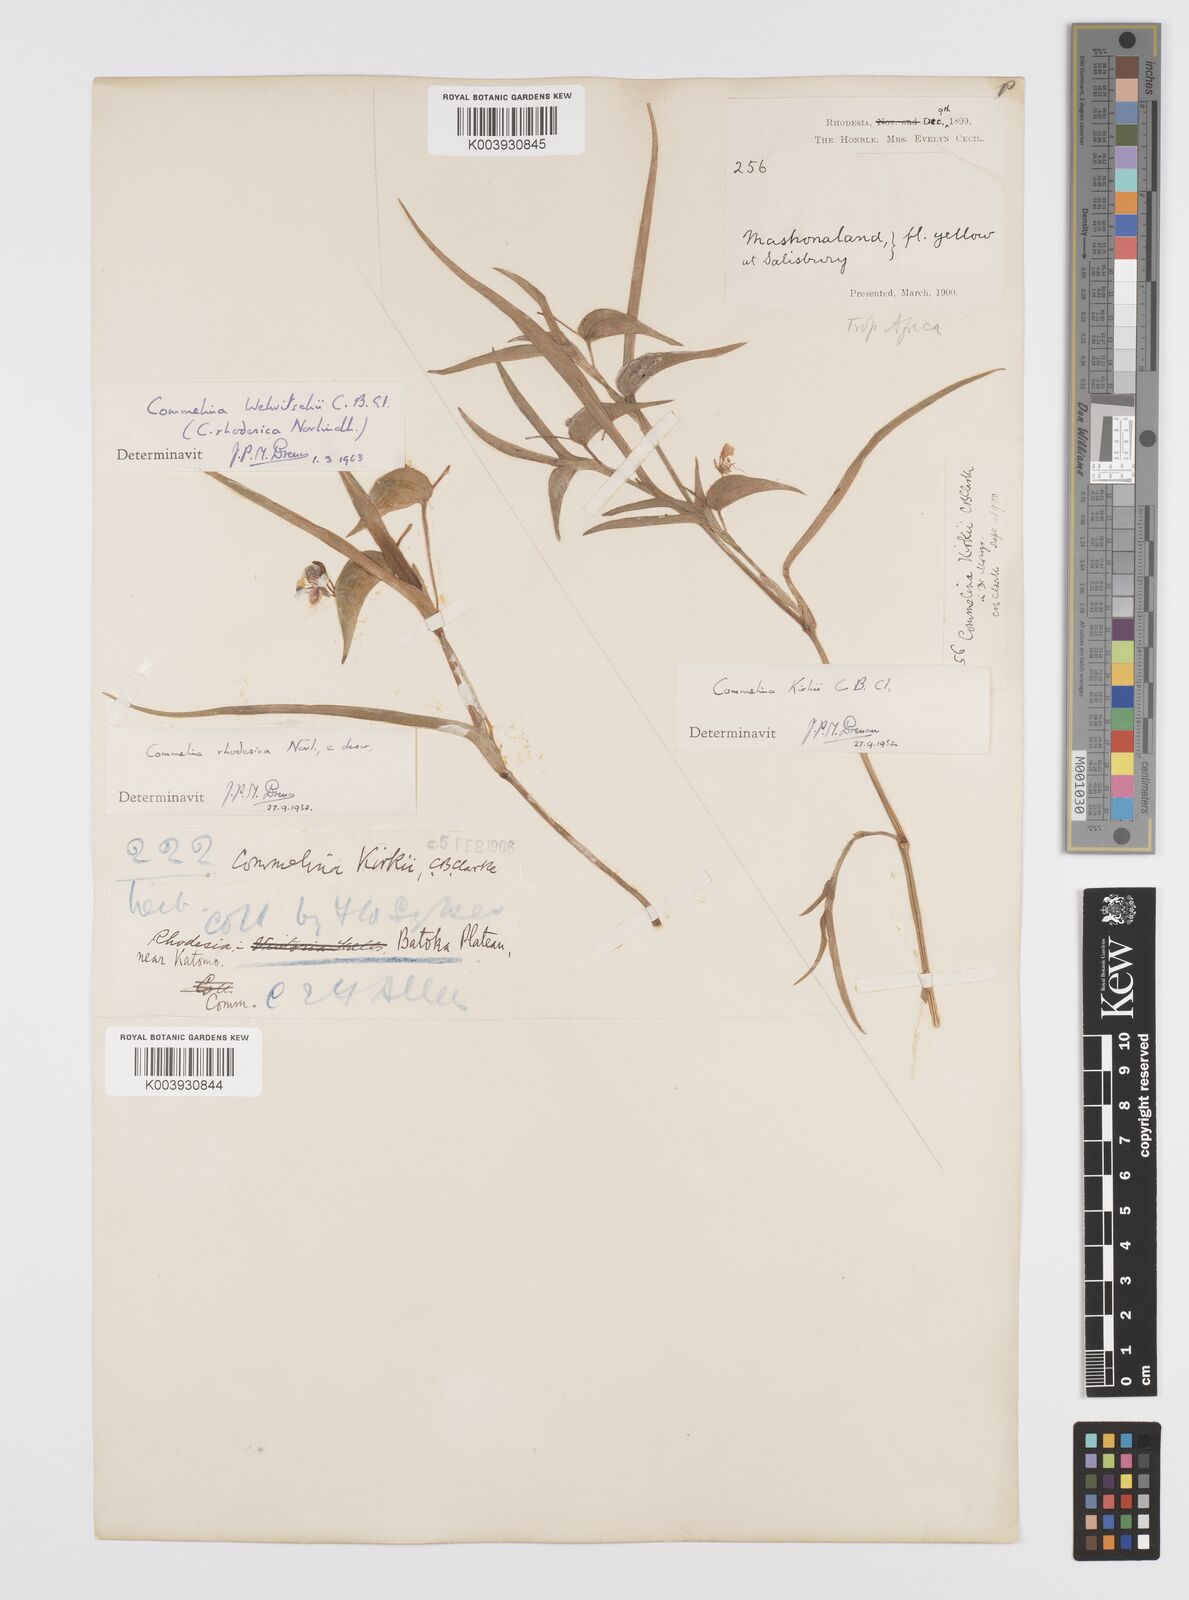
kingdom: Plantae
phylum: Tracheophyta
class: Liliopsida
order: Commelinales
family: Commelinaceae
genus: Commelina
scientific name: Commelina welwitschii
